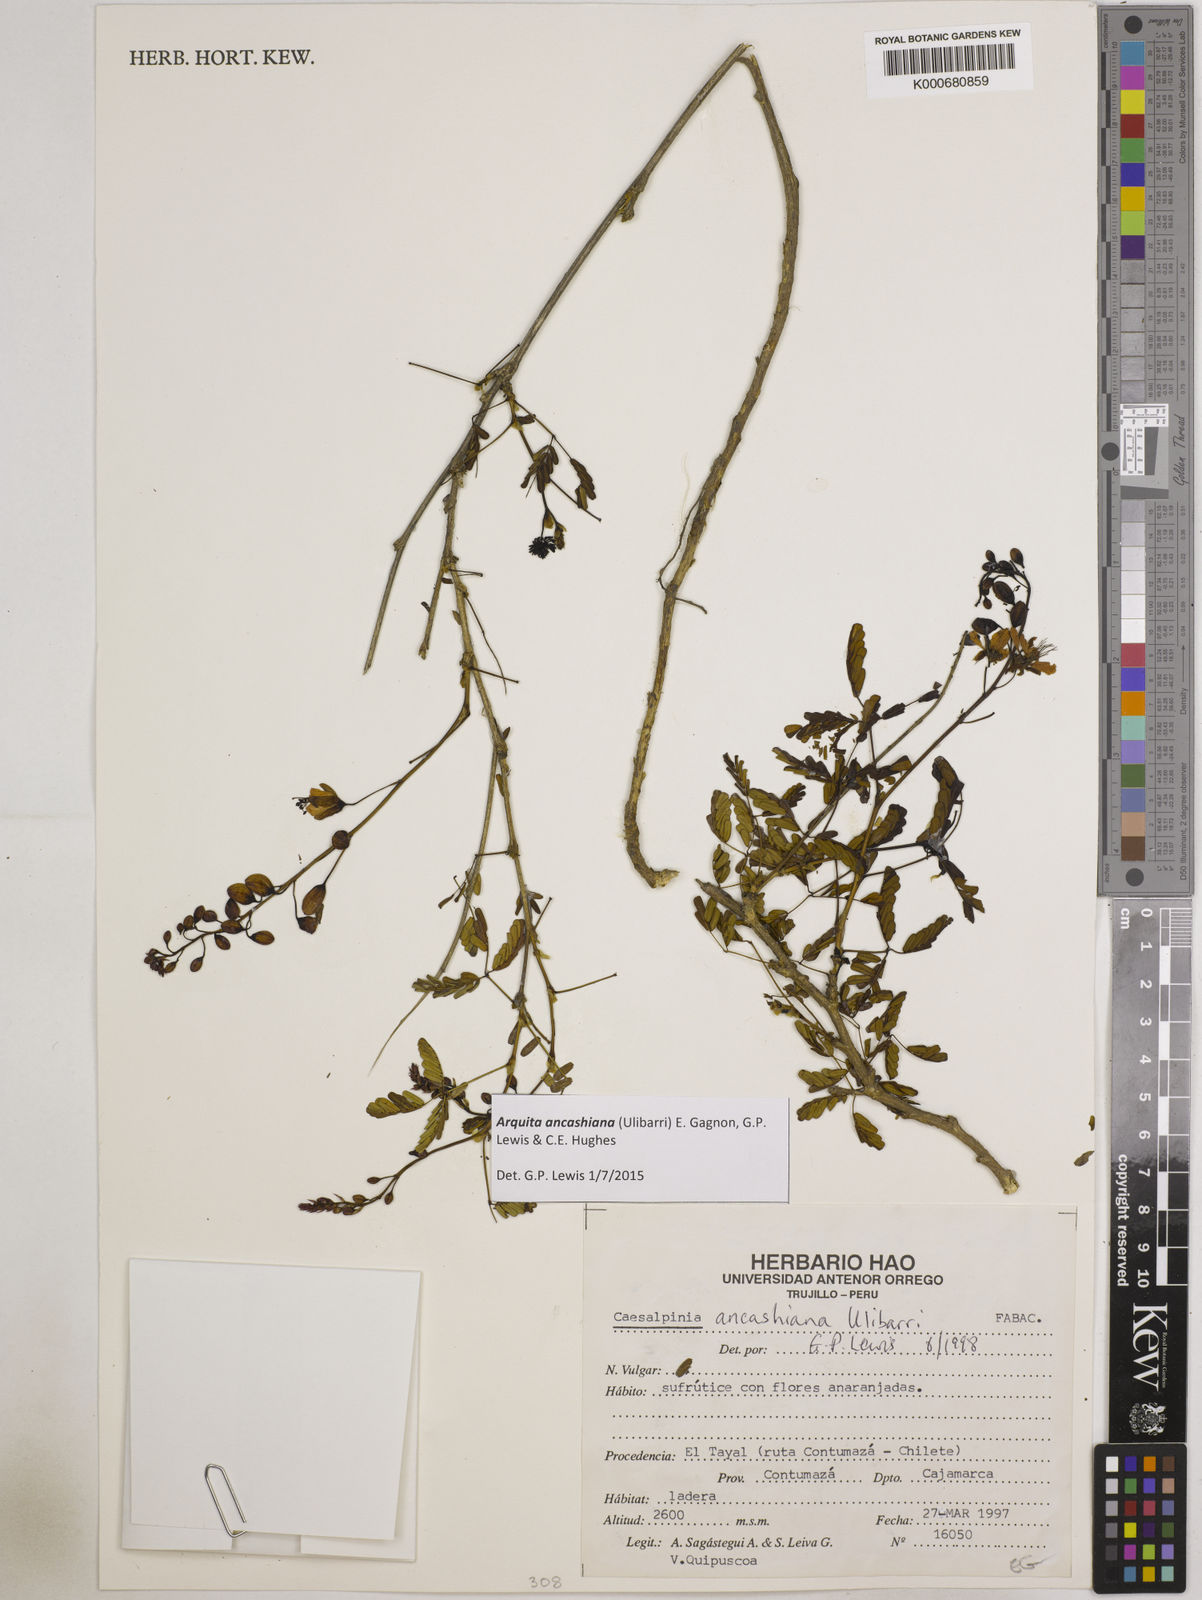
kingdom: Plantae
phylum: Tracheophyta
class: Magnoliopsida
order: Fabales
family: Fabaceae
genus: Arquita
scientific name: Arquita ancashiana
